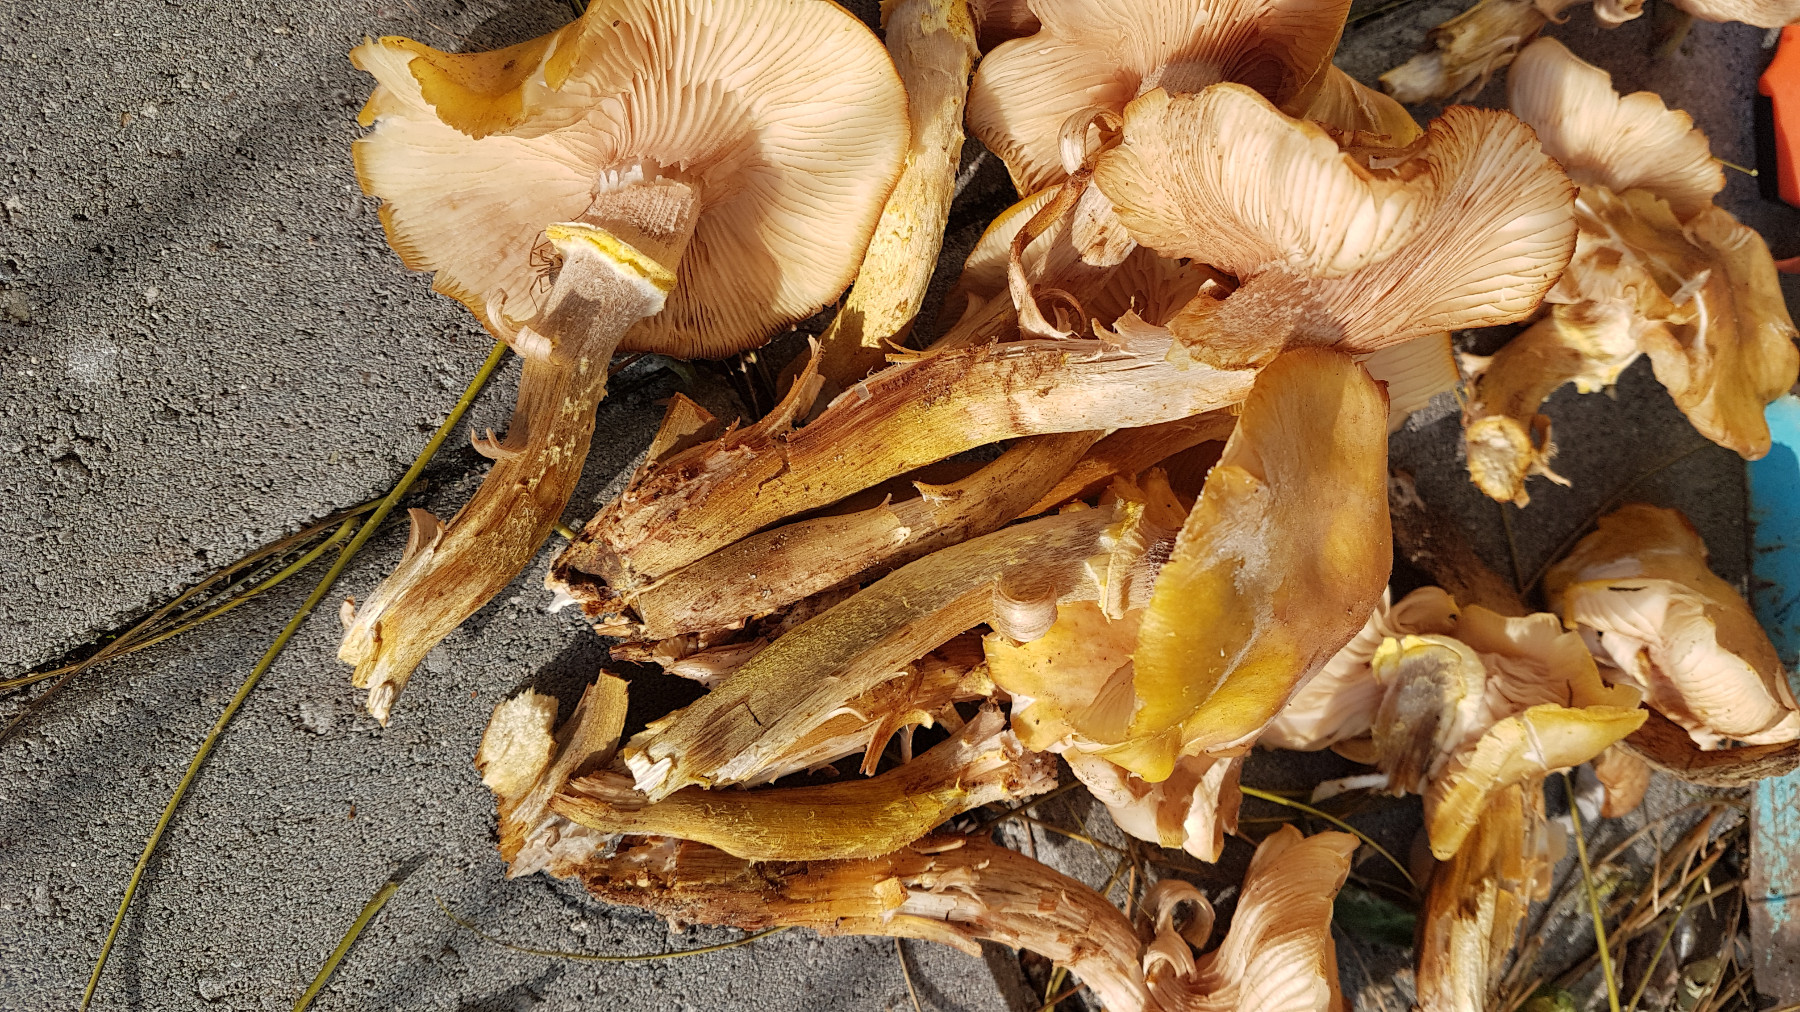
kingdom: Fungi
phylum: Basidiomycota
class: Agaricomycetes
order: Agaricales
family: Physalacriaceae
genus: Armillaria
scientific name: Armillaria mellea
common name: ægte honningsvamp
